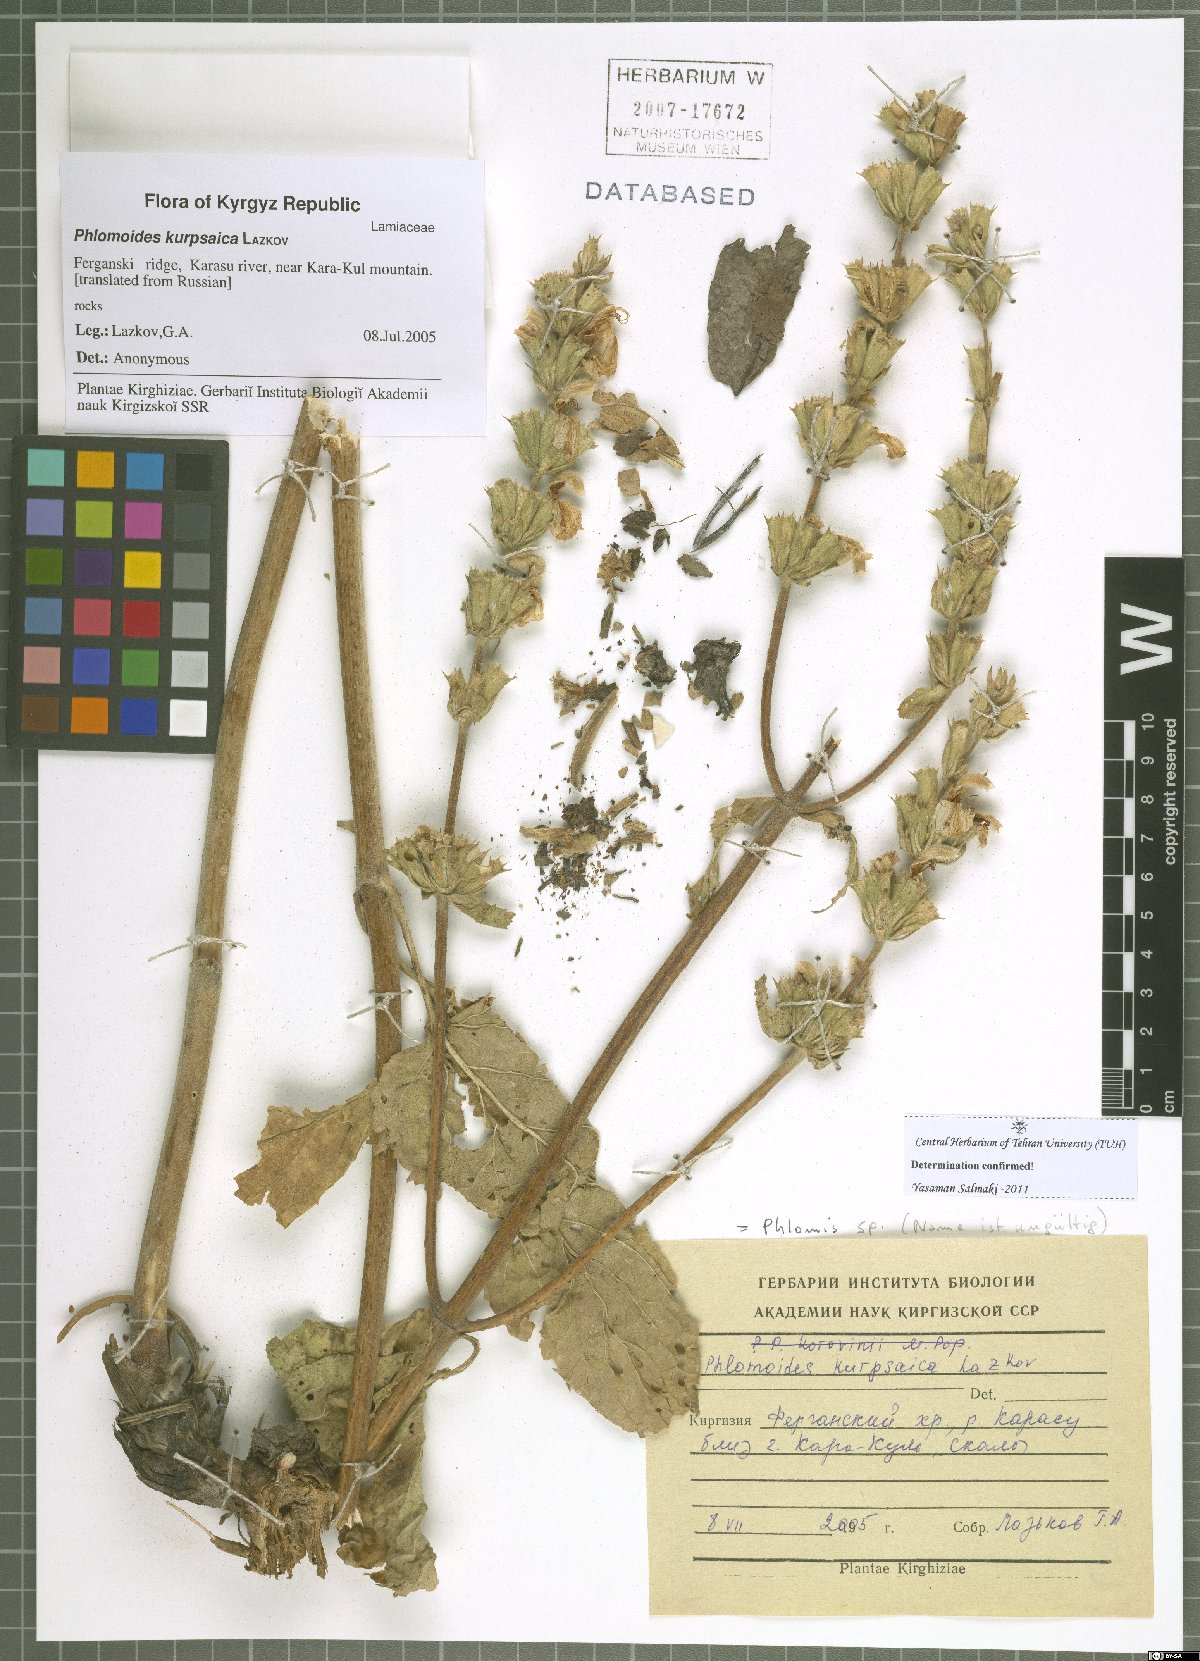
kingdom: Plantae
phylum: Tracheophyta
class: Magnoliopsida
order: Lamiales
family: Lamiaceae
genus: Phlomis
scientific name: Phlomis
